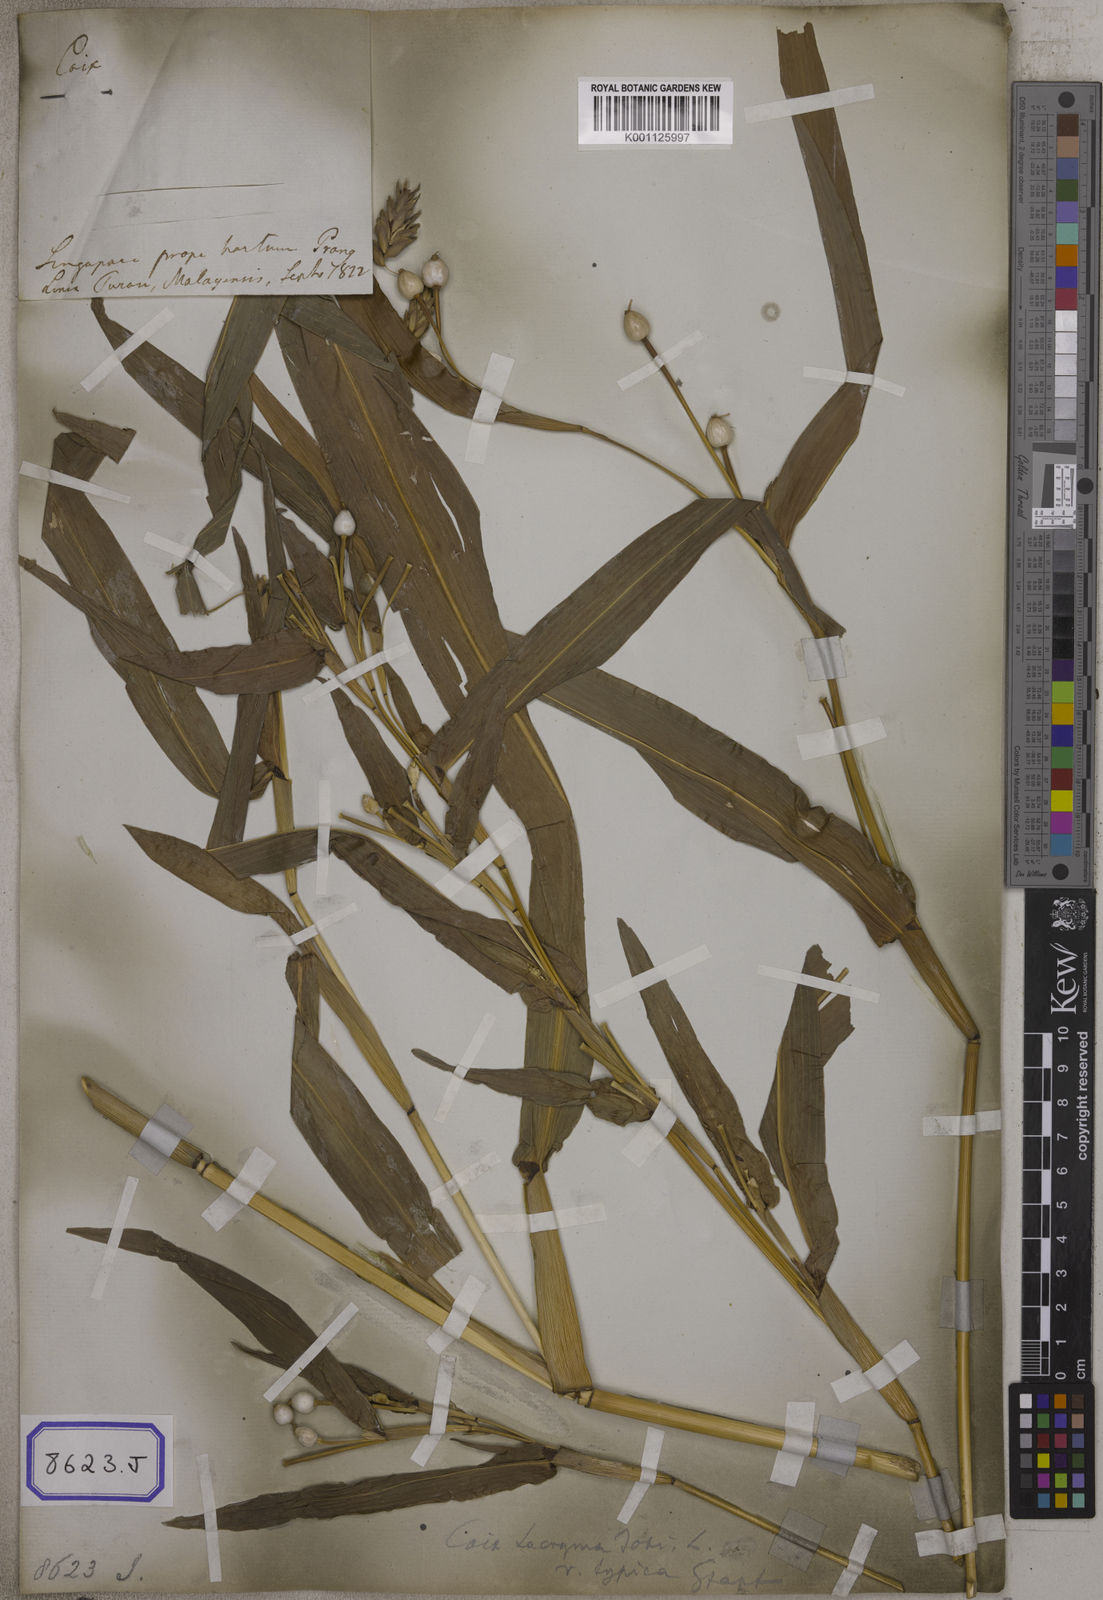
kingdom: Plantae
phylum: Tracheophyta
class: Liliopsida
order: Poales
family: Poaceae
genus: Coix
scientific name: Coix lacryma-jobi
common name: Job's tears
